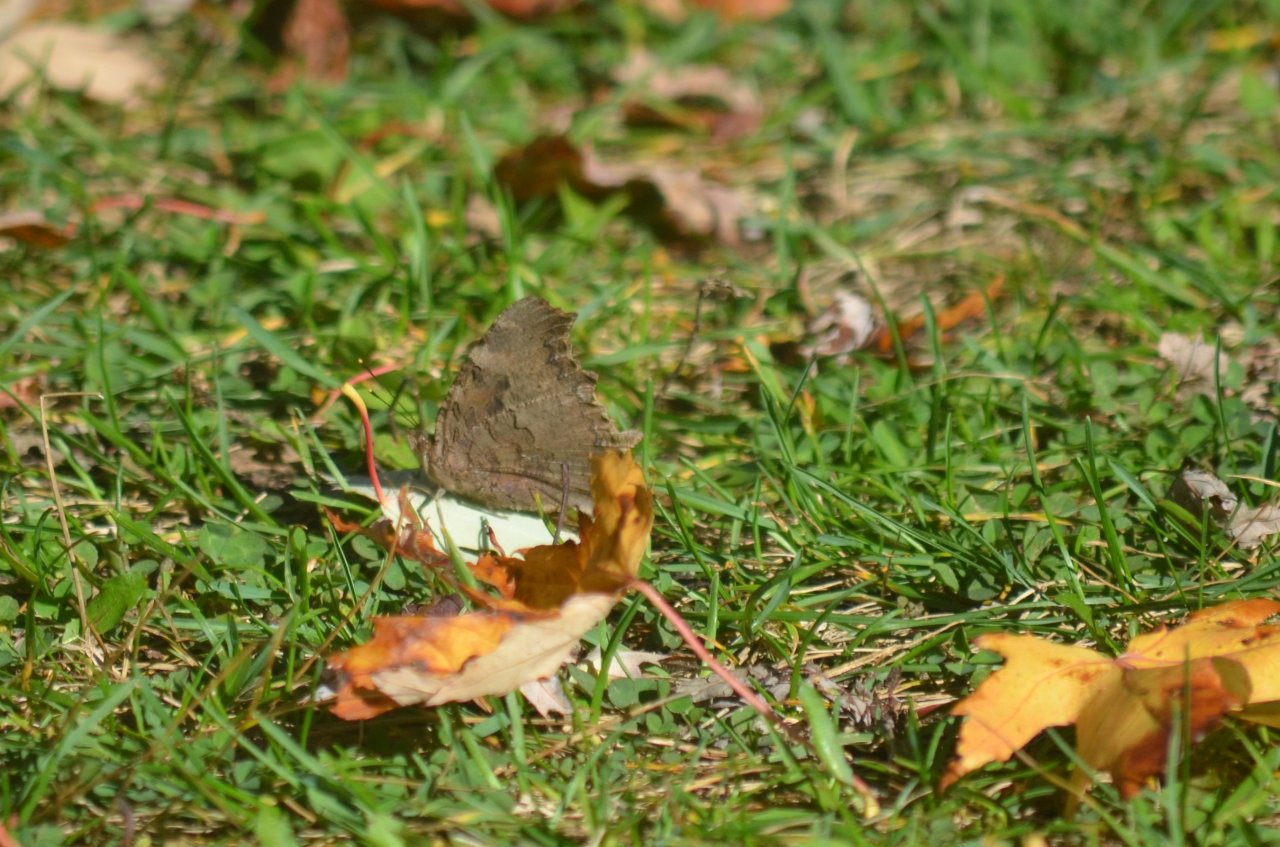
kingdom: Animalia
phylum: Arthropoda
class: Insecta
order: Lepidoptera
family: Nymphalidae
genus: Polygonia
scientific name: Polygonia vaualbum
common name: Compton Tortoiseshell
